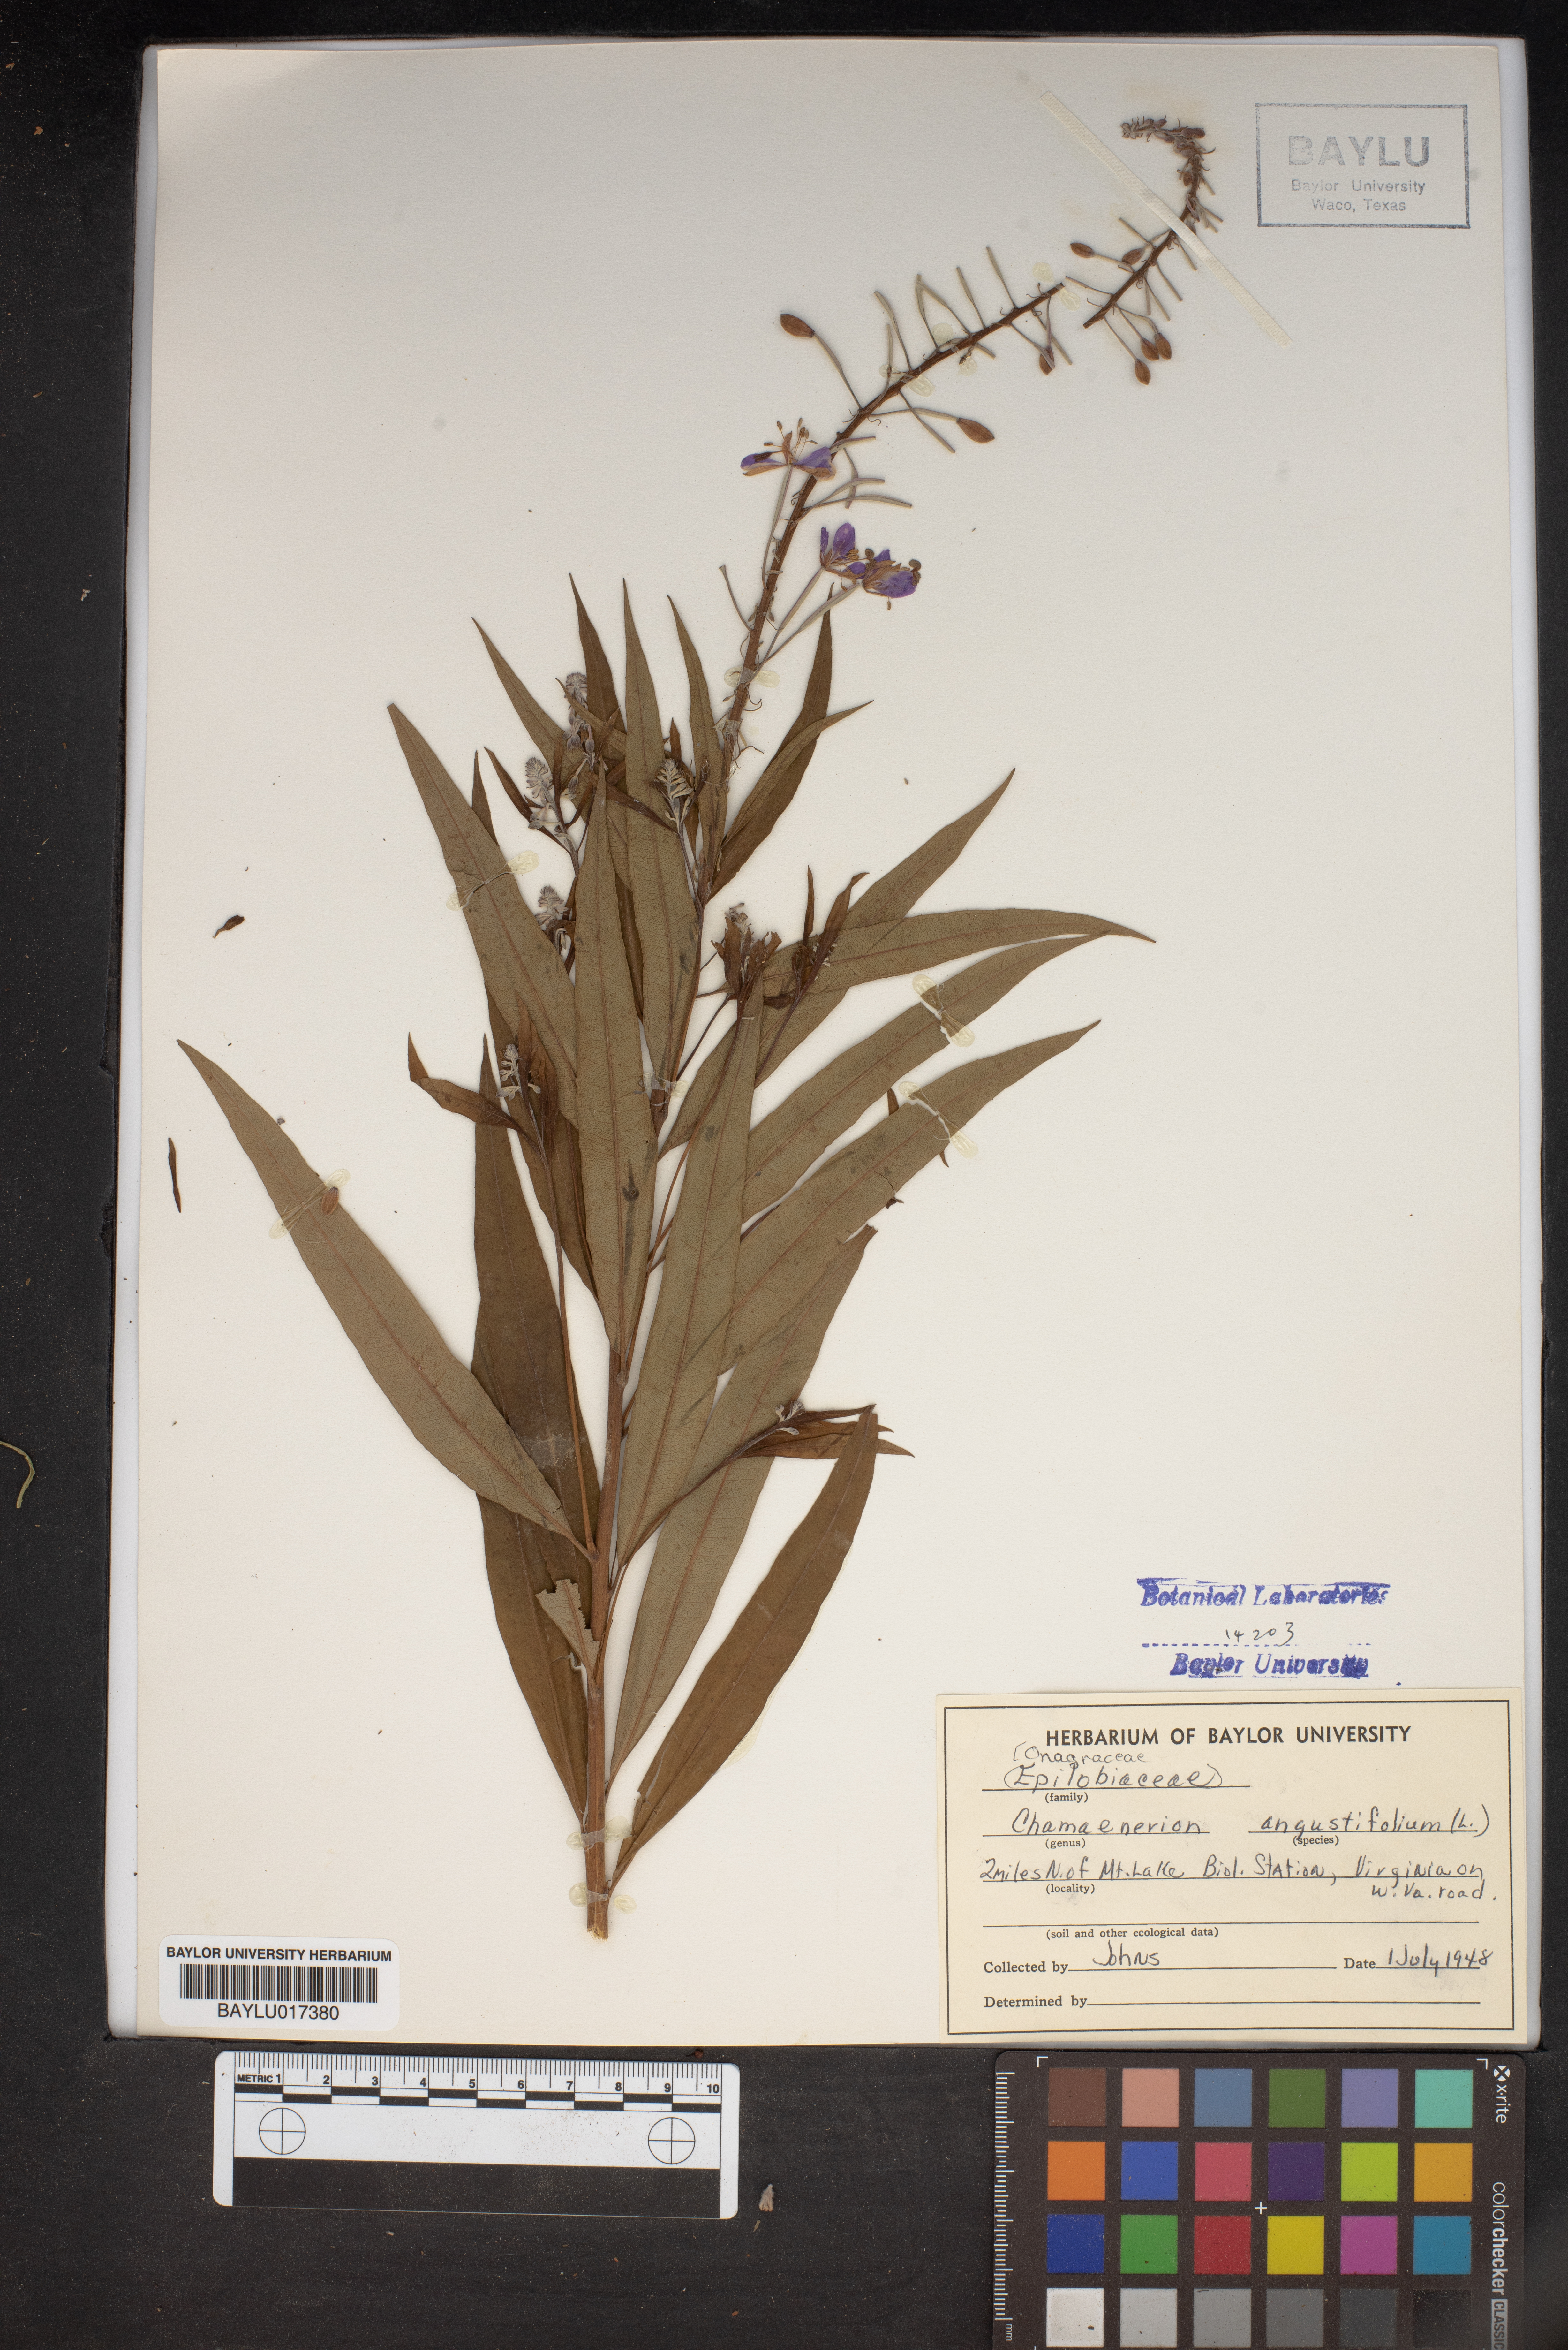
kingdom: Plantae
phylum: Tracheophyta
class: Magnoliopsida
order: Myrtales
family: Onagraceae
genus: Chamaenerion
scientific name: Chamaenerion angustifolium
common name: Fireweed
